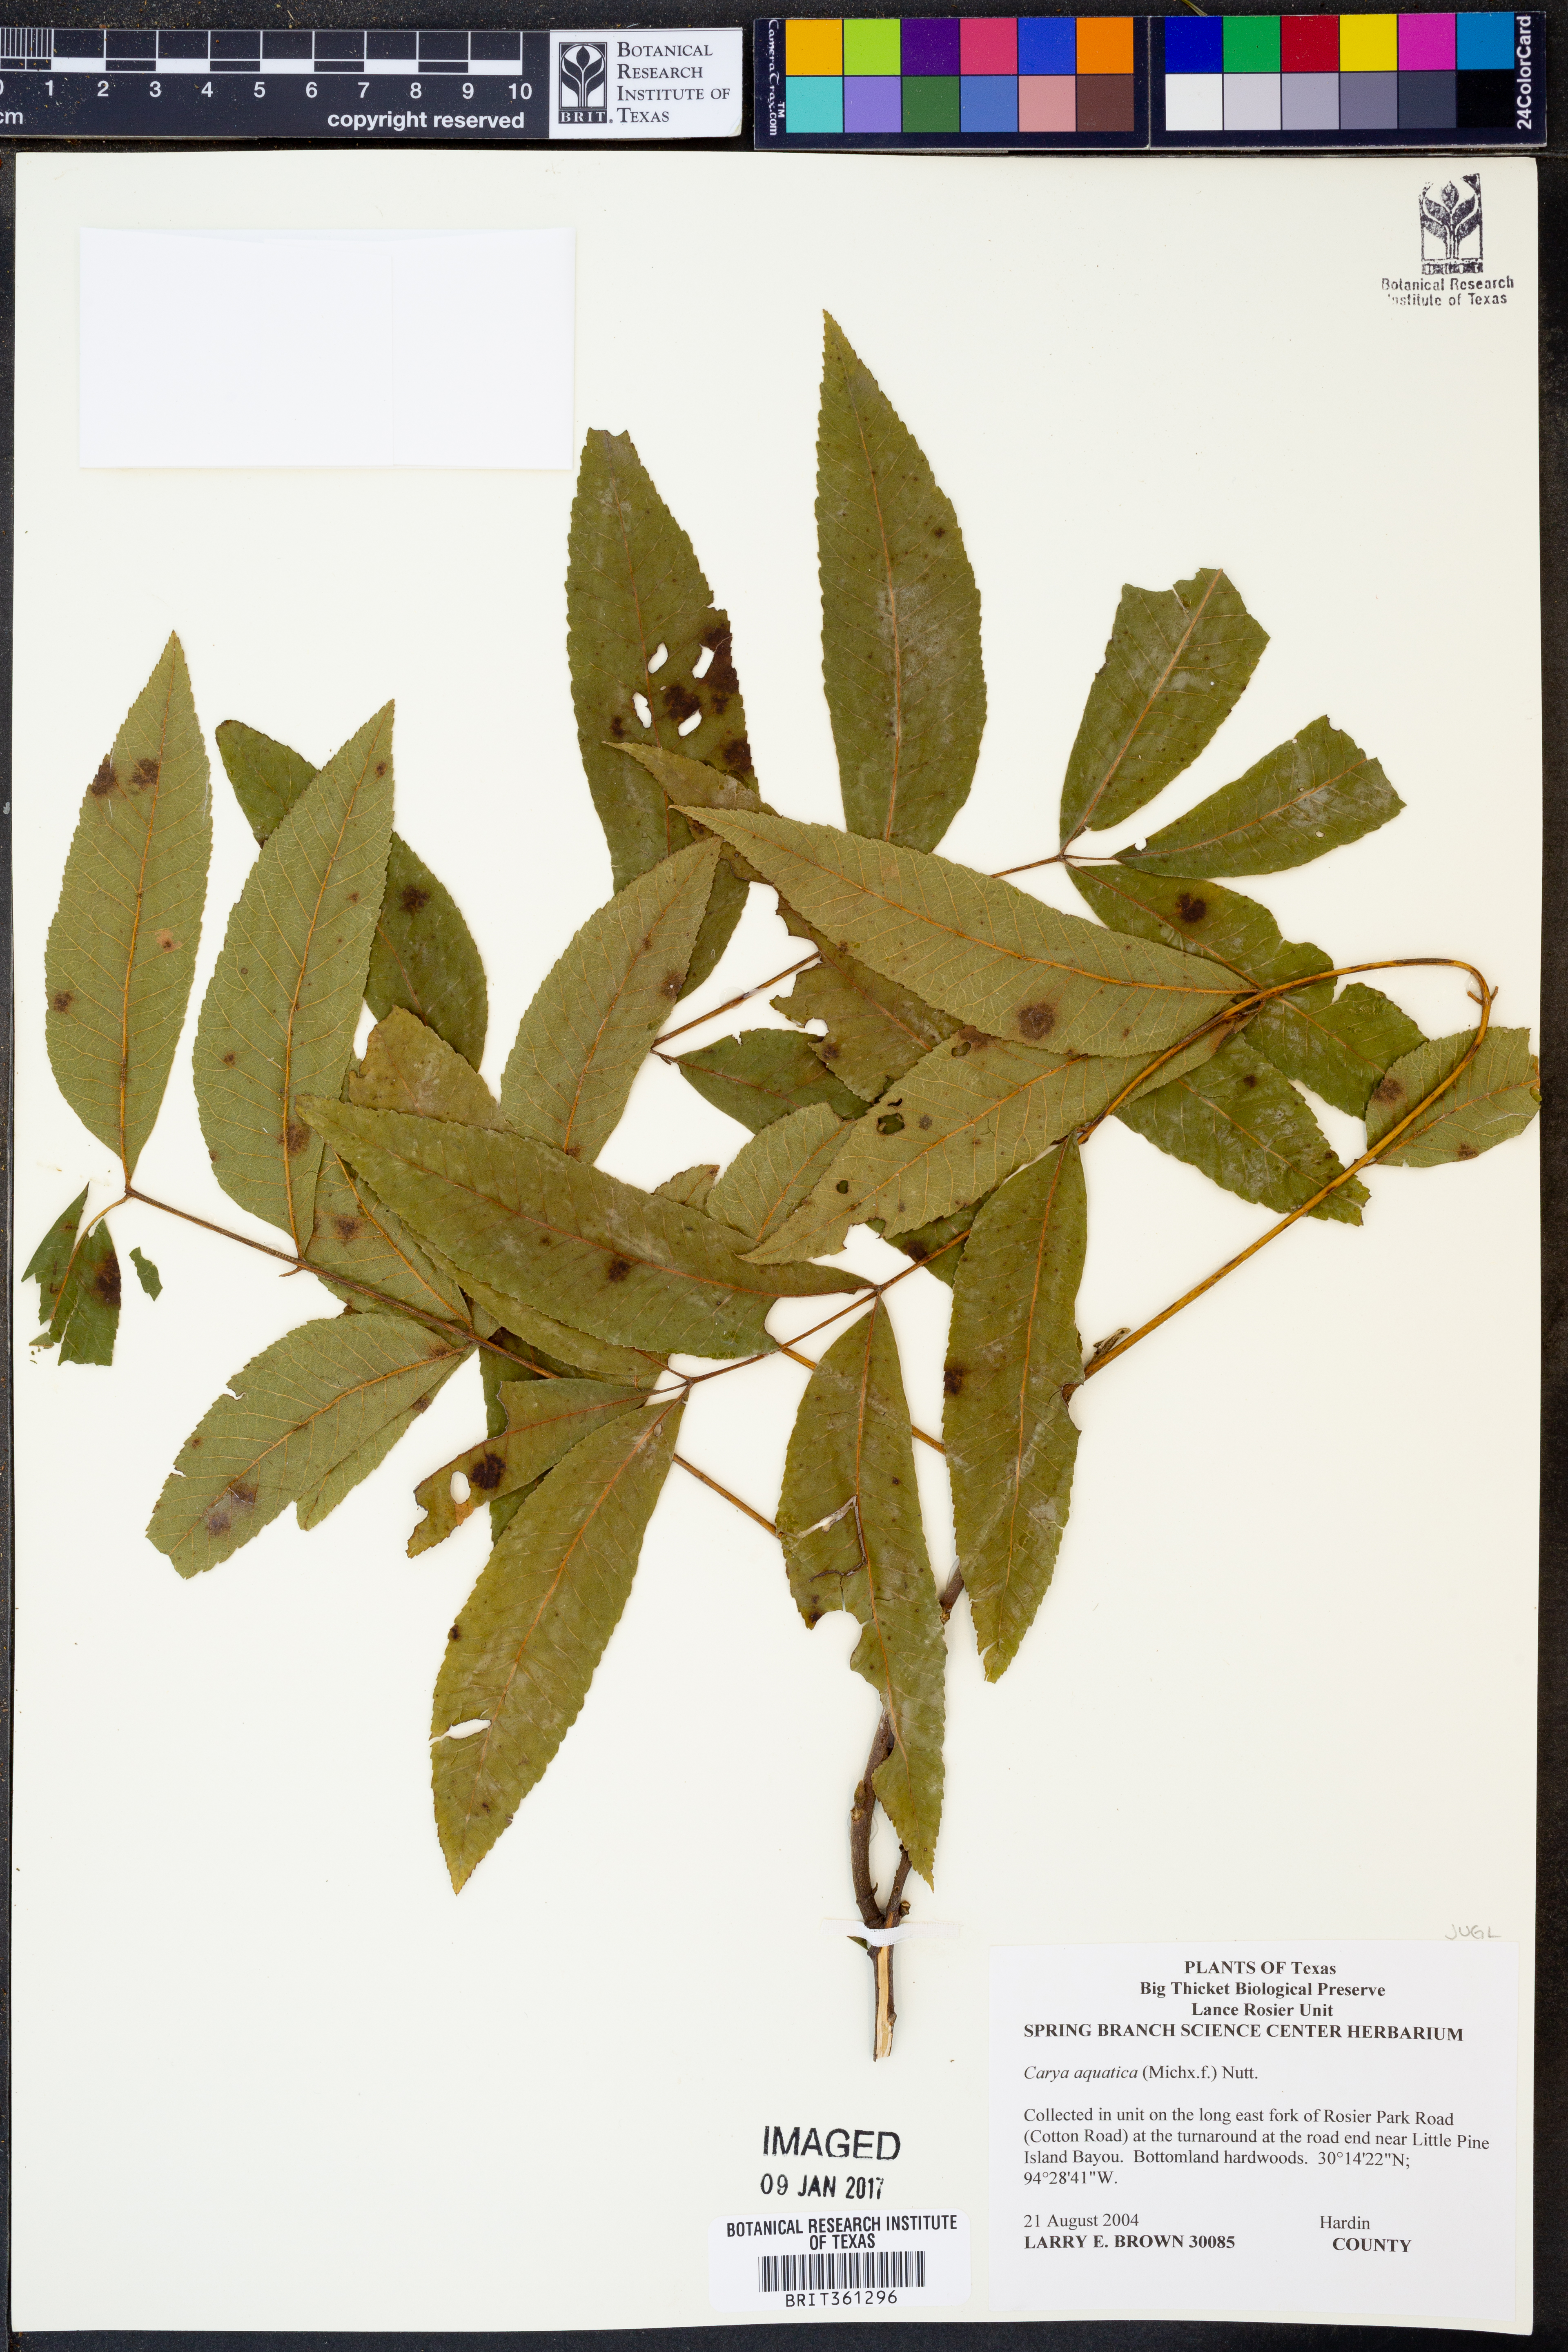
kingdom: Plantae
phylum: Tracheophyta
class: Magnoliopsida
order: Fagales
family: Juglandaceae
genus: Carya
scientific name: Carya aquatica
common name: Water hickory
